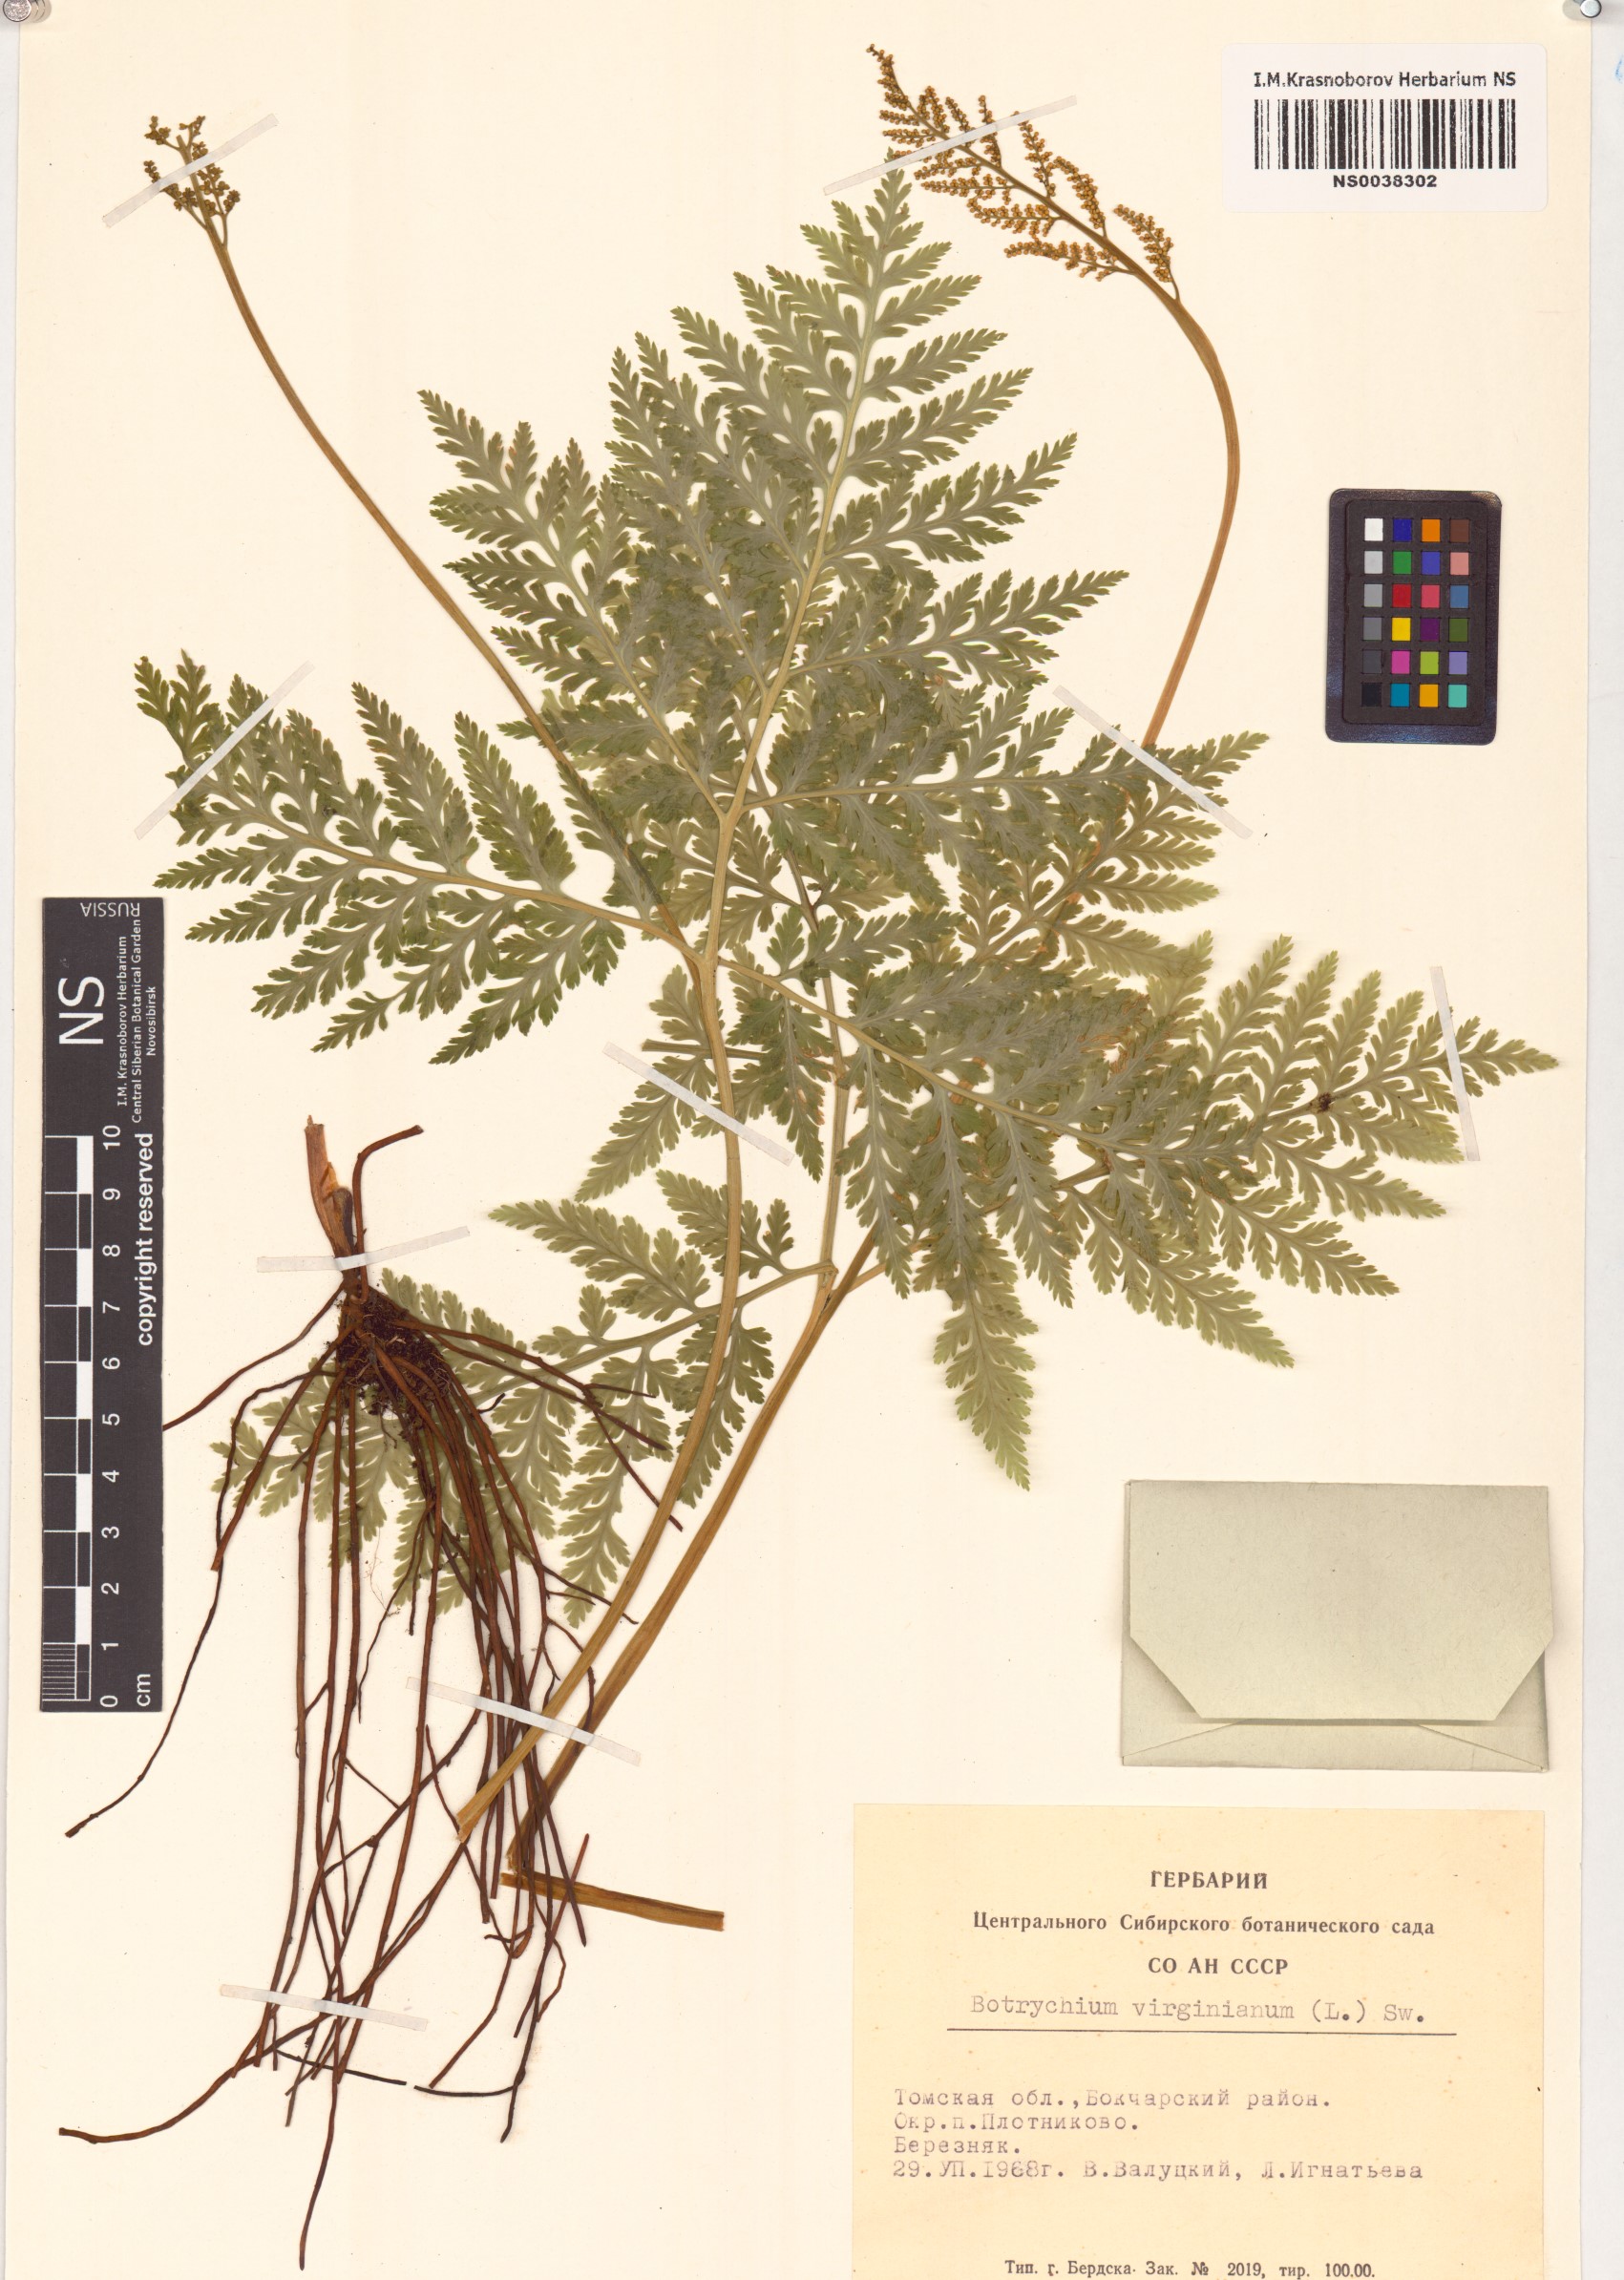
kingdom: Plantae
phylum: Tracheophyta
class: Polypodiopsida
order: Ophioglossales
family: Ophioglossaceae
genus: Botrypus
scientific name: Botrypus virginianus
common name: Common grapefern
